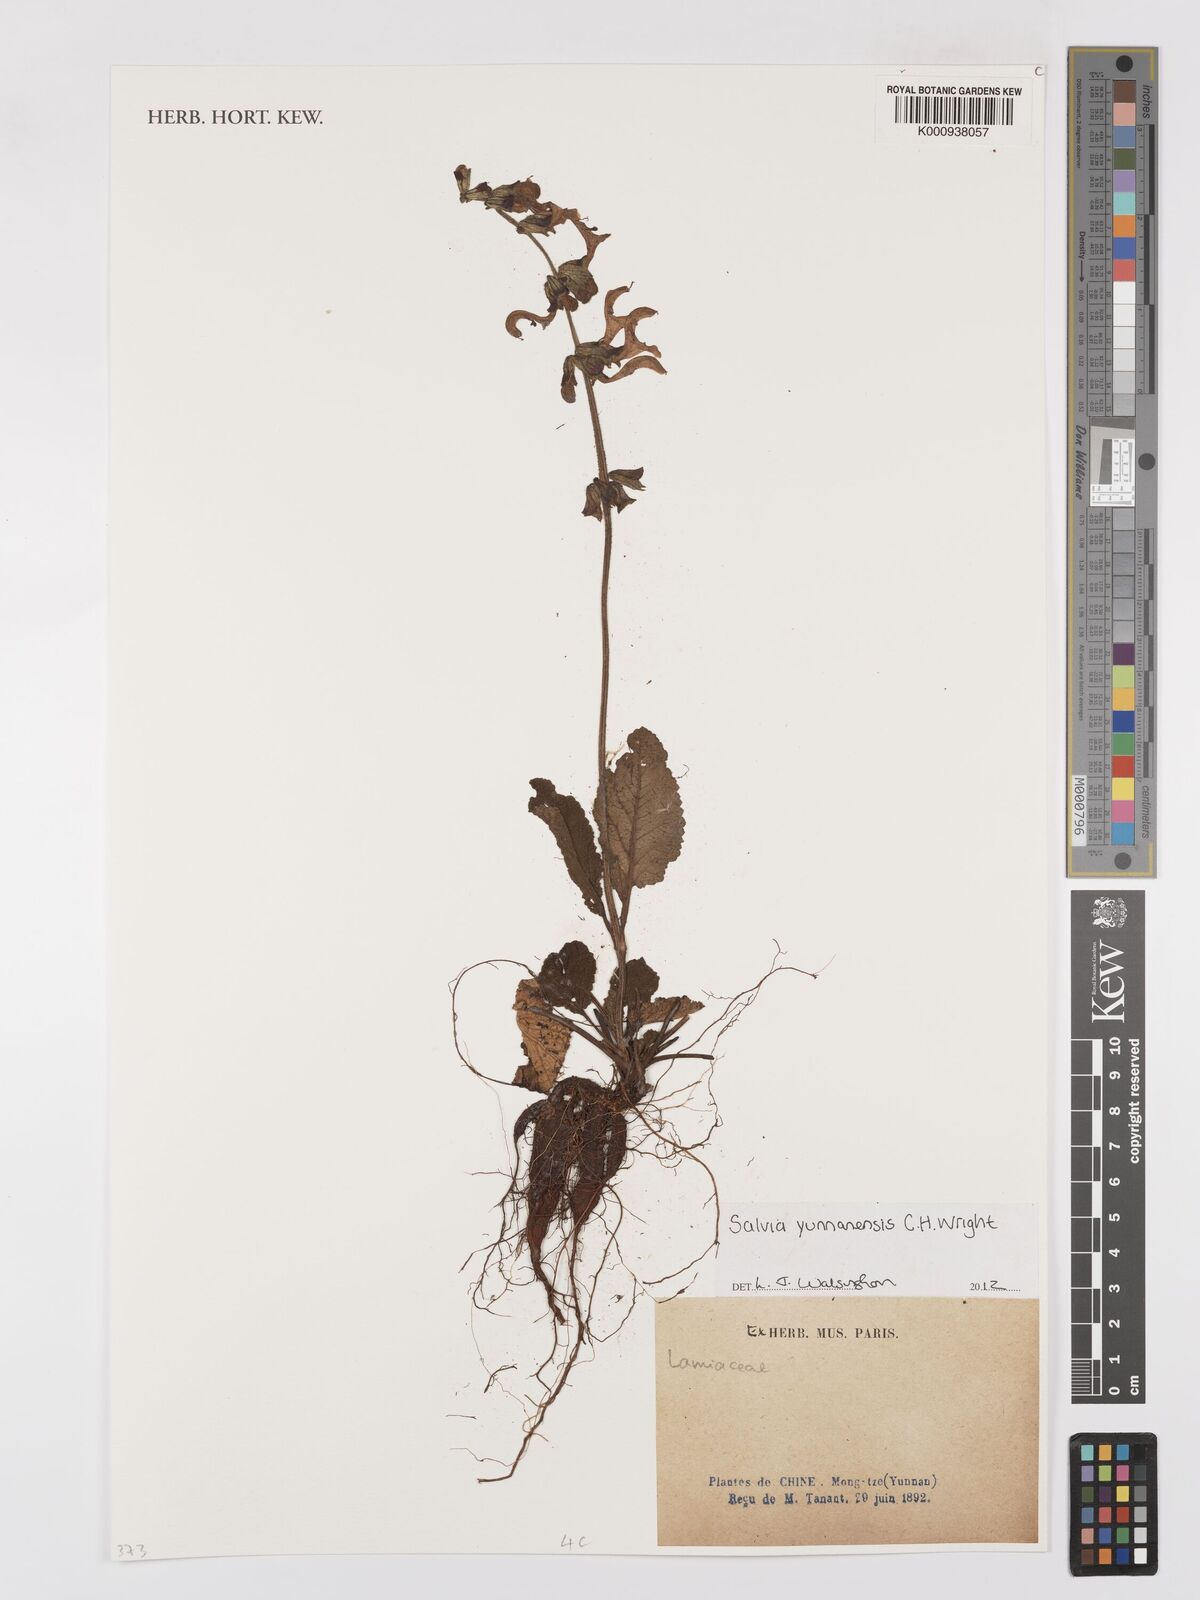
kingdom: Plantae
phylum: Tracheophyta
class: Magnoliopsida
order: Lamiales
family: Lamiaceae
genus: Salvia
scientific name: Salvia japonica
